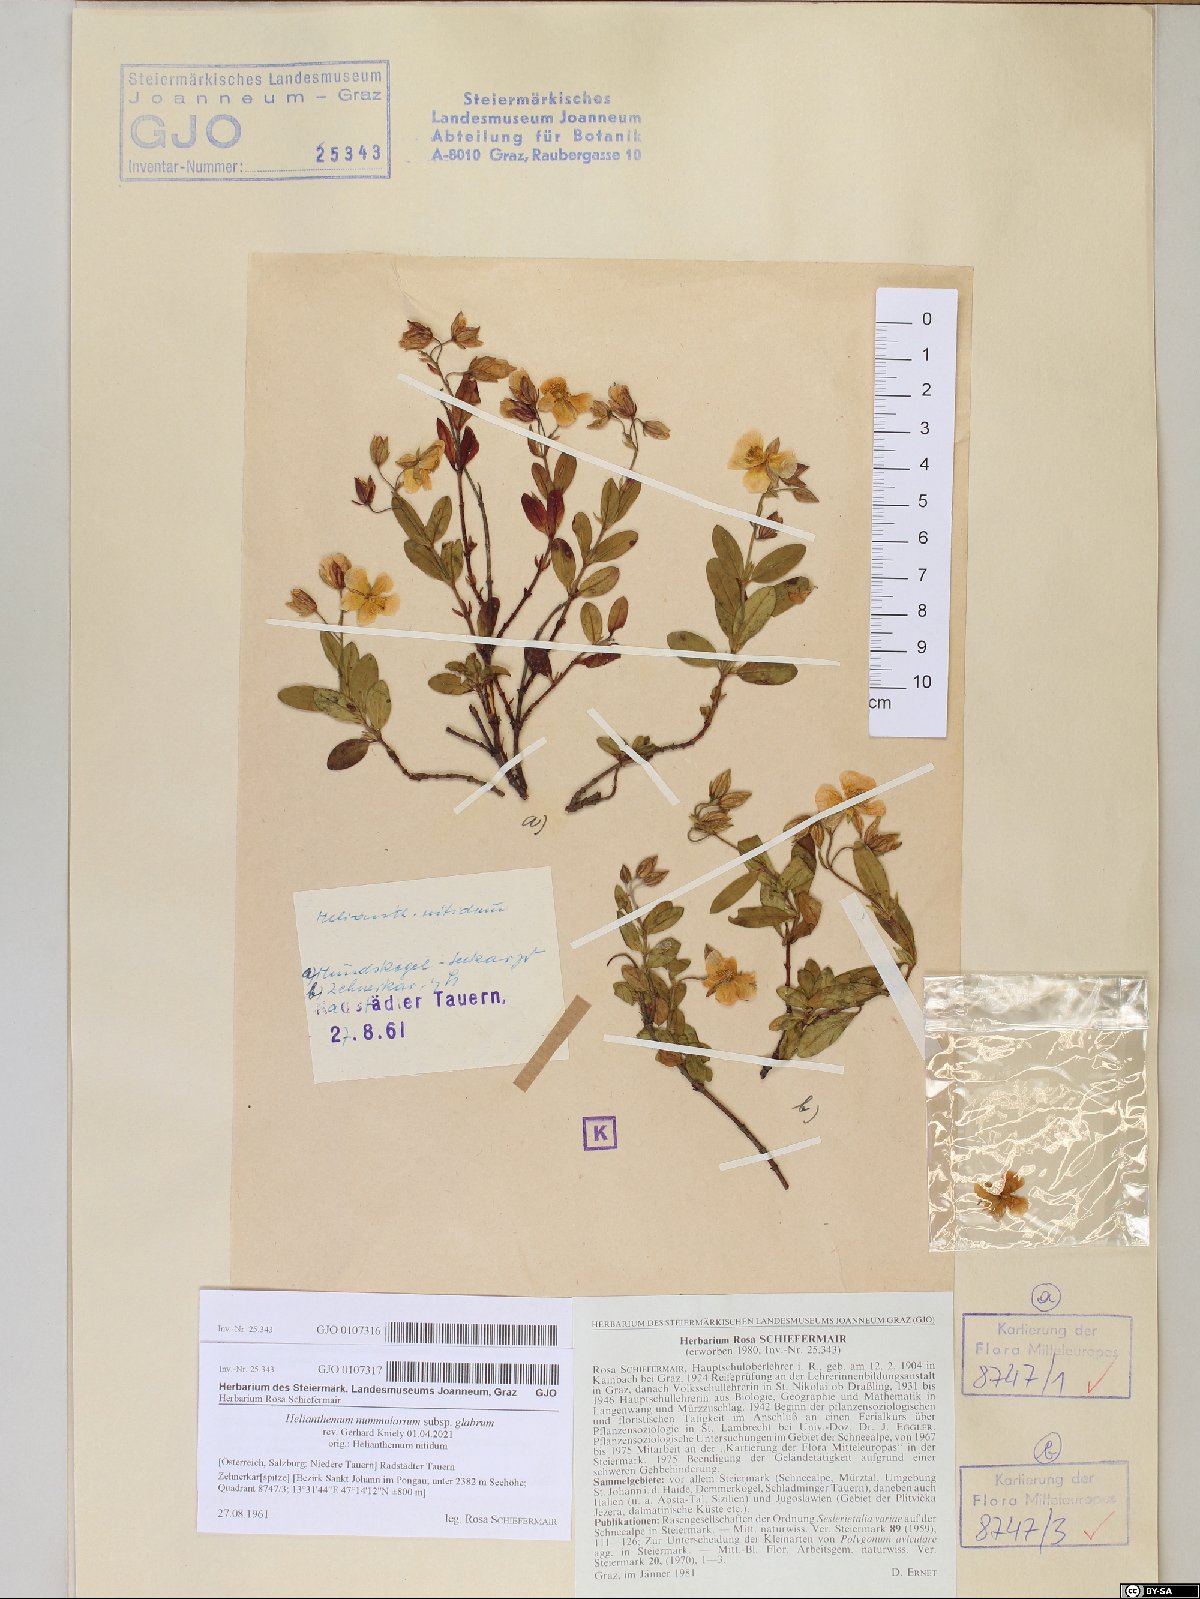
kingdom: Plantae
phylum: Tracheophyta
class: Magnoliopsida
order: Malvales
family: Cistaceae
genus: Helianthemum
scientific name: Helianthemum nummularium
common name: Common rock-rose
